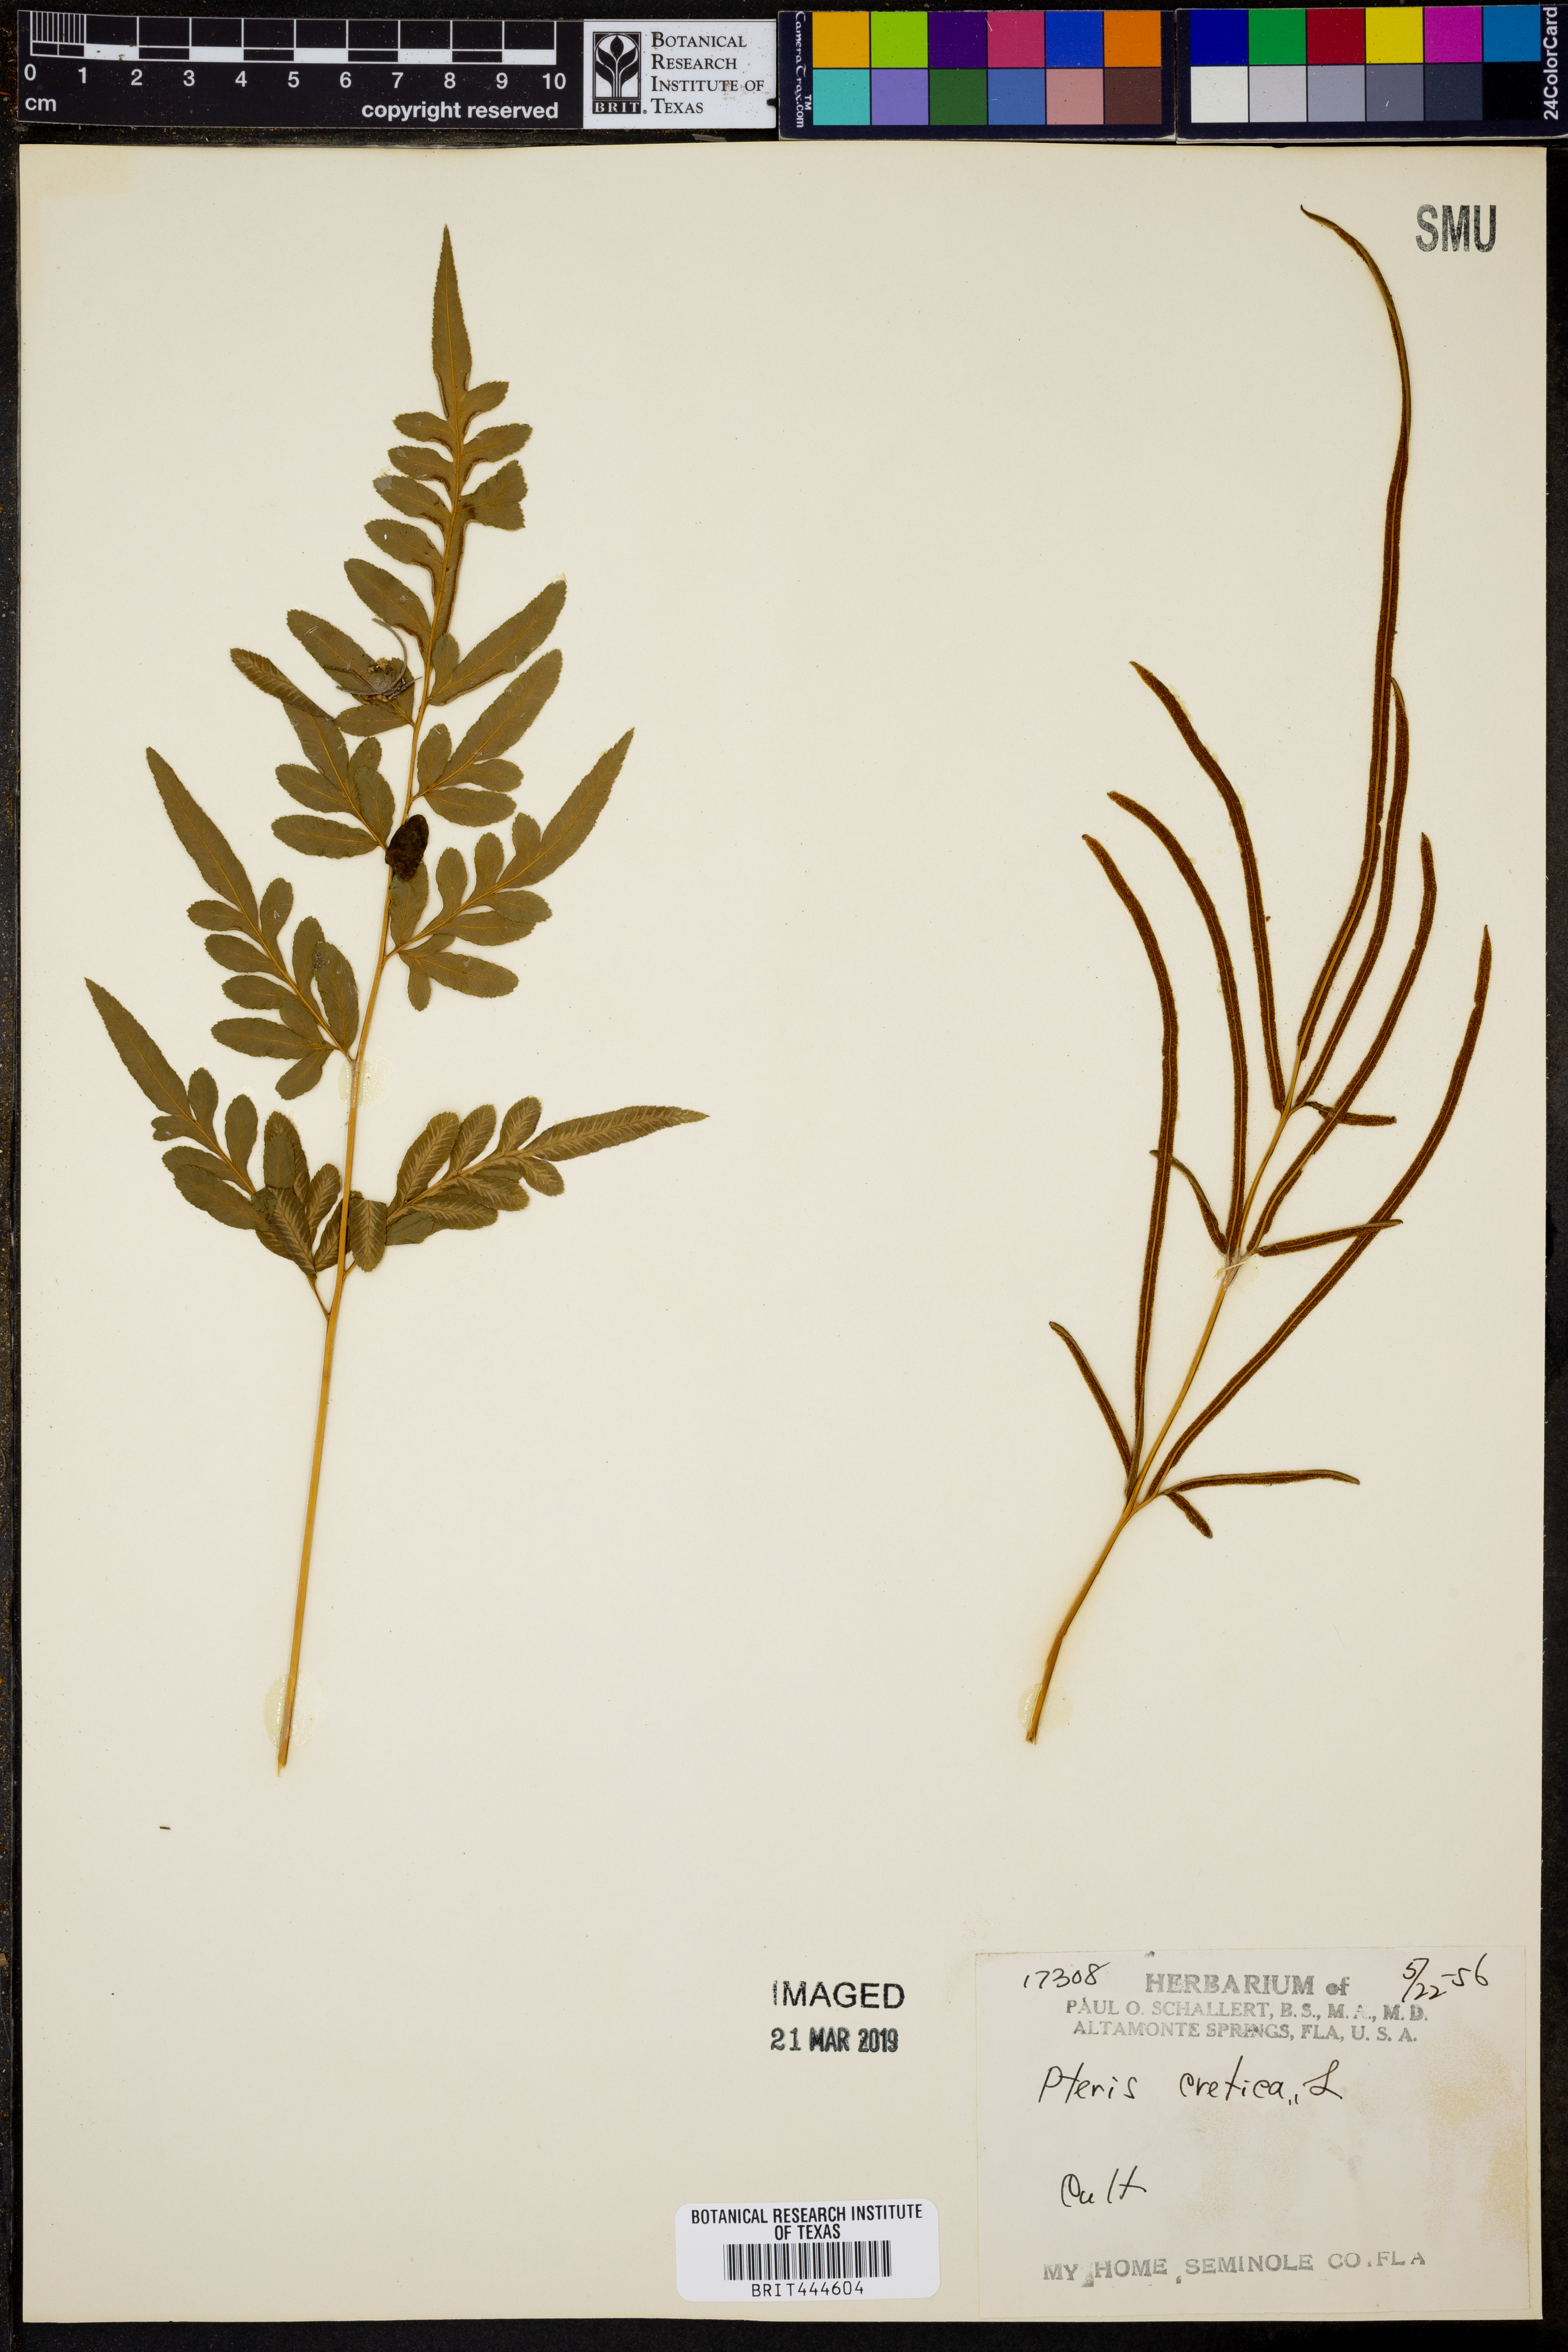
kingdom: Plantae
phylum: Tracheophyta
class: Polypodiopsida
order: Polypodiales
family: Pteridaceae
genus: Pteris
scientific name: Pteris cretica
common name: Ribbon fern
